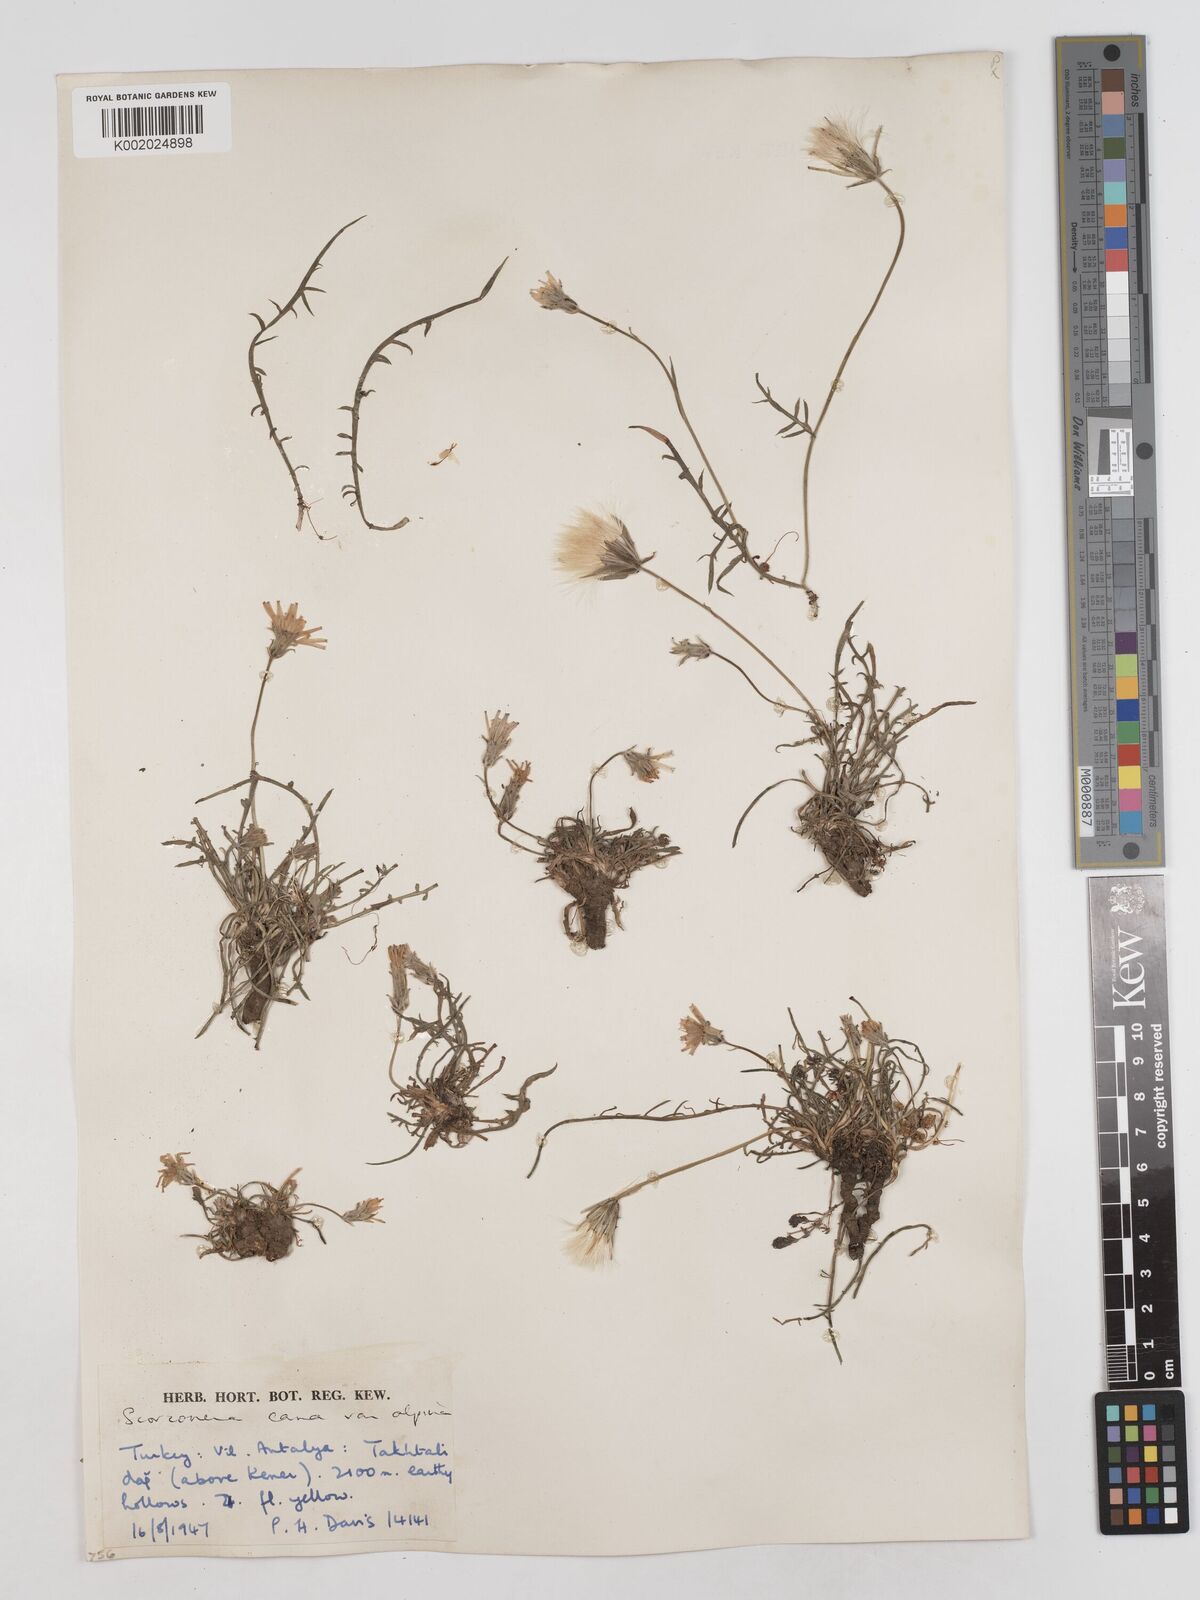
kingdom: Plantae
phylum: Tracheophyta
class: Magnoliopsida
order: Asterales
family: Asteraceae
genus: Scorzonera
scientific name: Scorzonera alpigena
